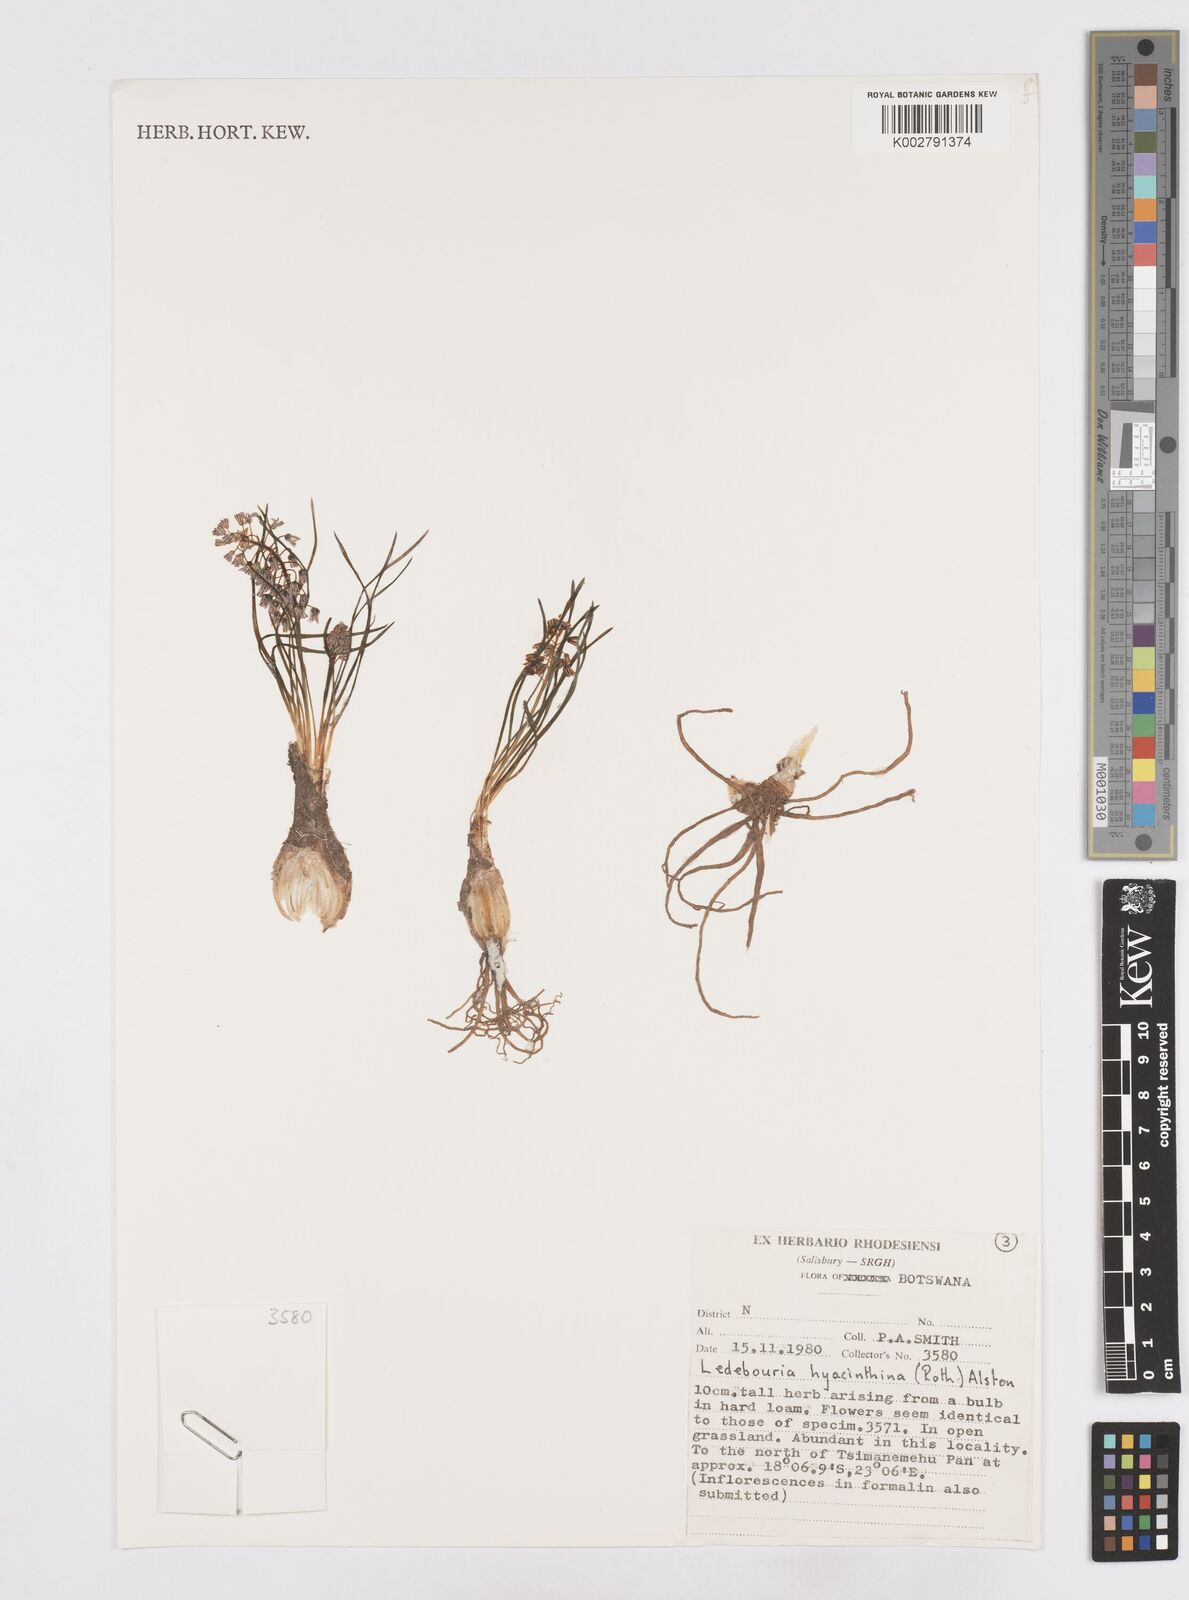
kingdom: Plantae
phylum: Tracheophyta
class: Liliopsida
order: Asparagales
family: Asparagaceae
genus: Ledebouria
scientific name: Ledebouria revoluta
